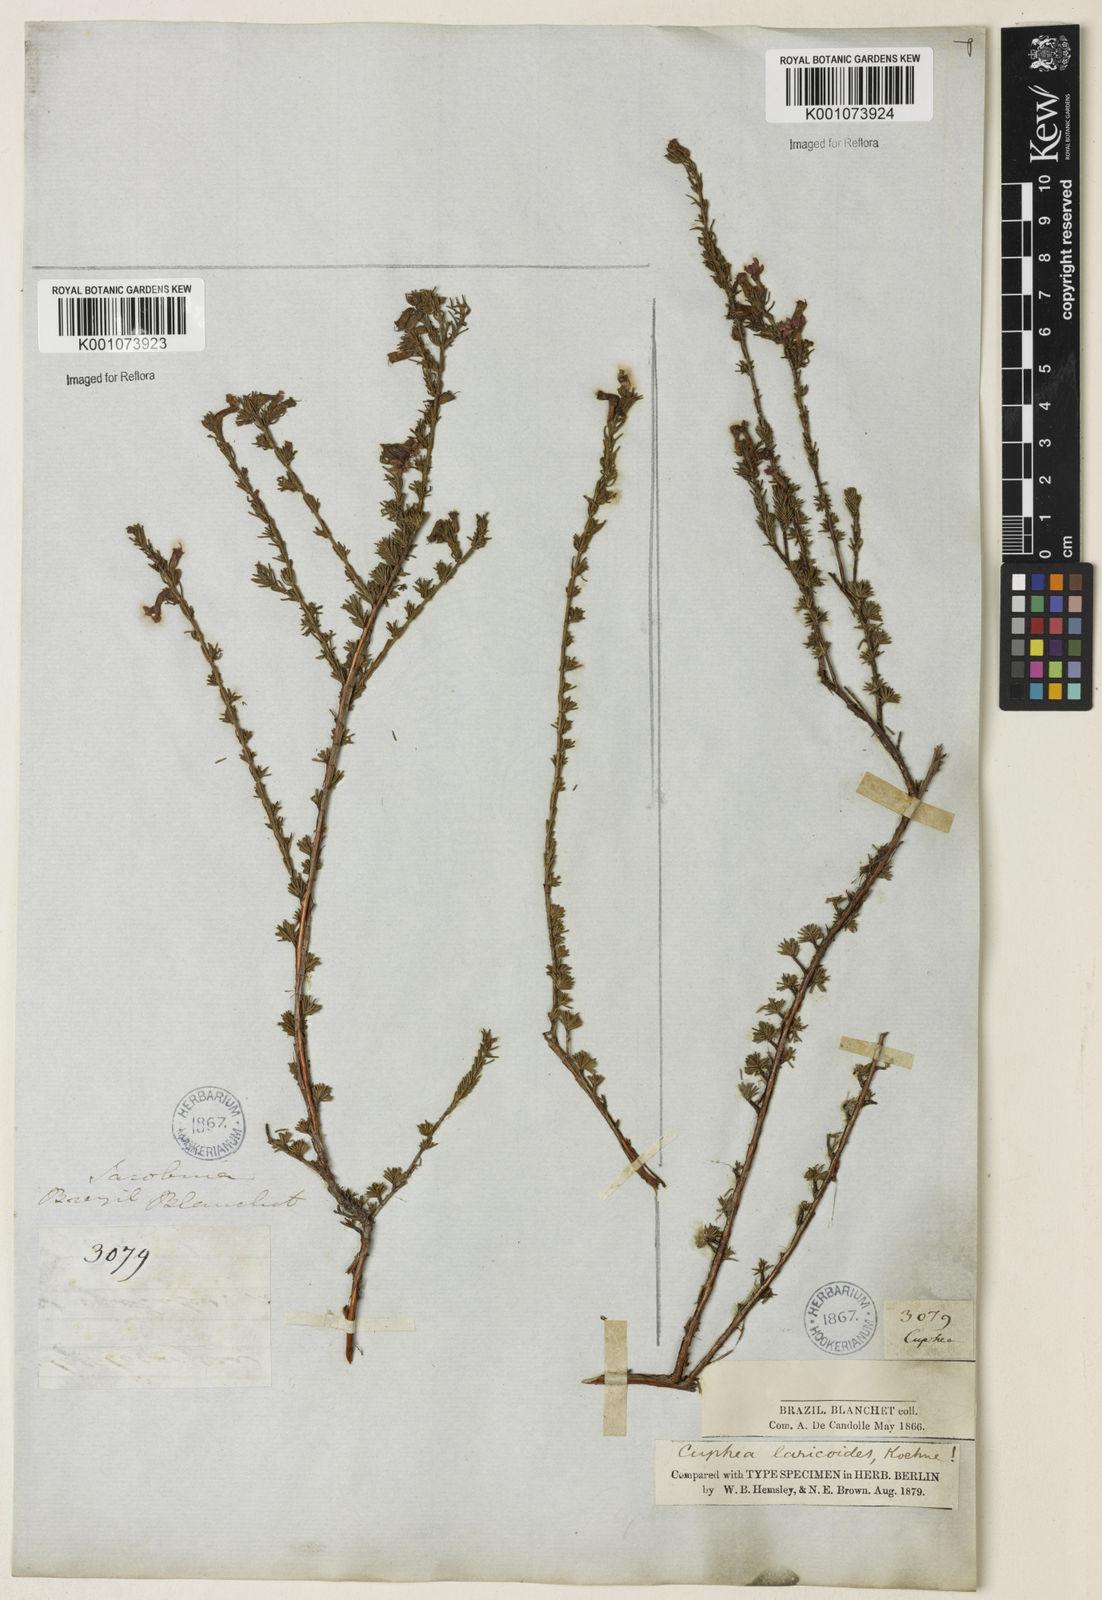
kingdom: Plantae
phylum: Tracheophyta
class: Magnoliopsida
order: Myrtales
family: Lythraceae
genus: Cuphea
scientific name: Cuphea laricoides
